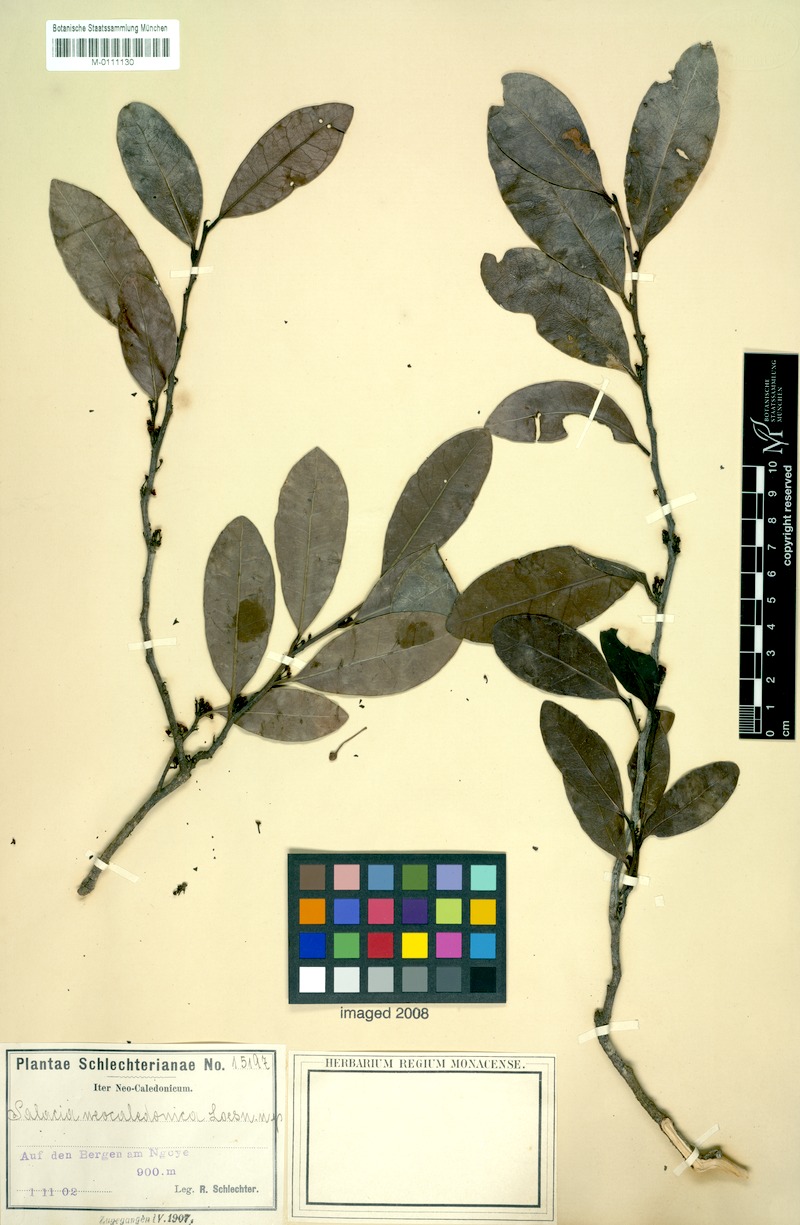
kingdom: Plantae
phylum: Tracheophyta
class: Magnoliopsida
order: Celastrales
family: Celastraceae
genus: Dicarpellum
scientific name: Dicarpellum pancheri
